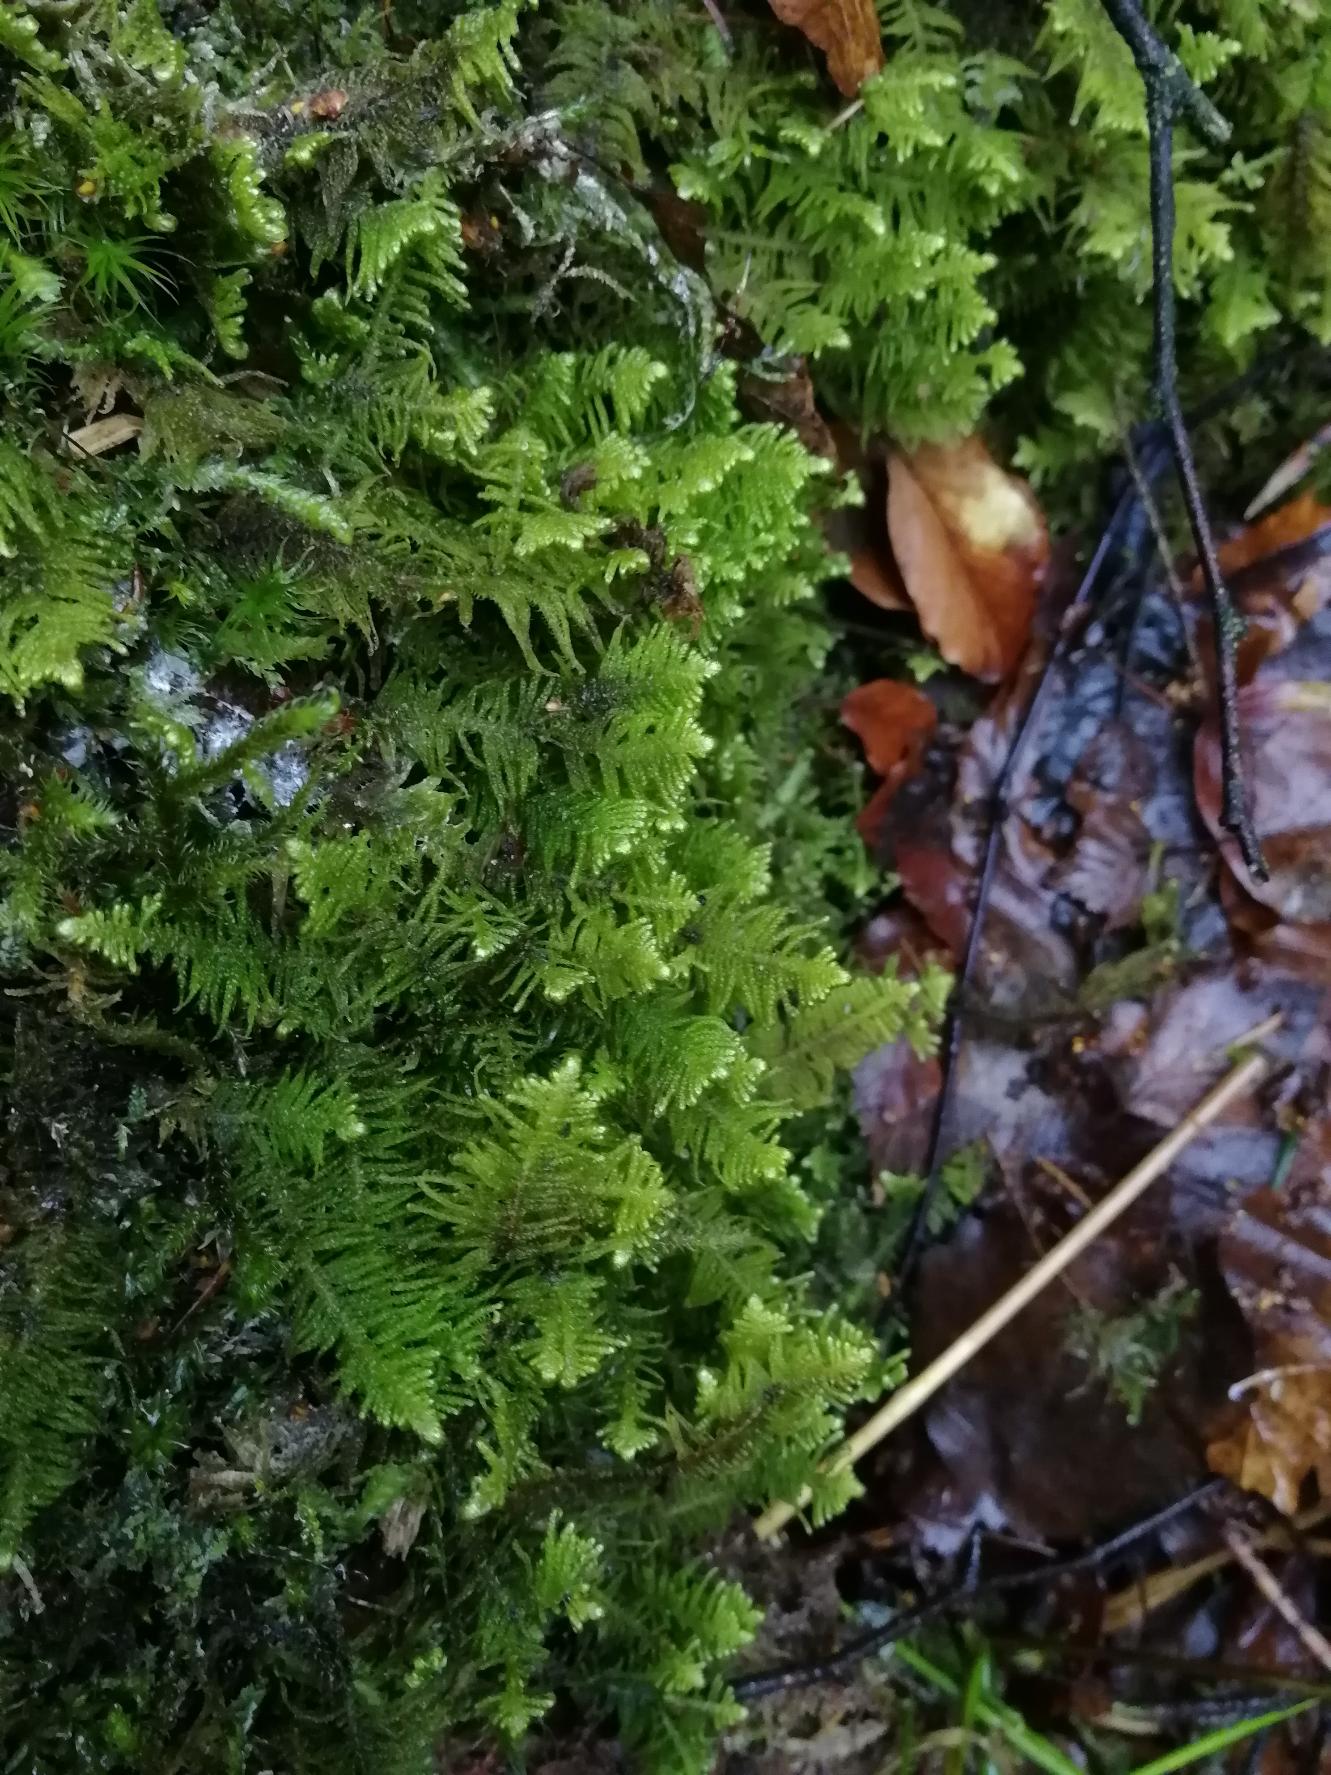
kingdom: Plantae
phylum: Bryophyta
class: Bryopsida
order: Hypnales
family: Pylaisiaceae
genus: Ptilium
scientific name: Ptilium crista-castrensis
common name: Fjer-kammos
